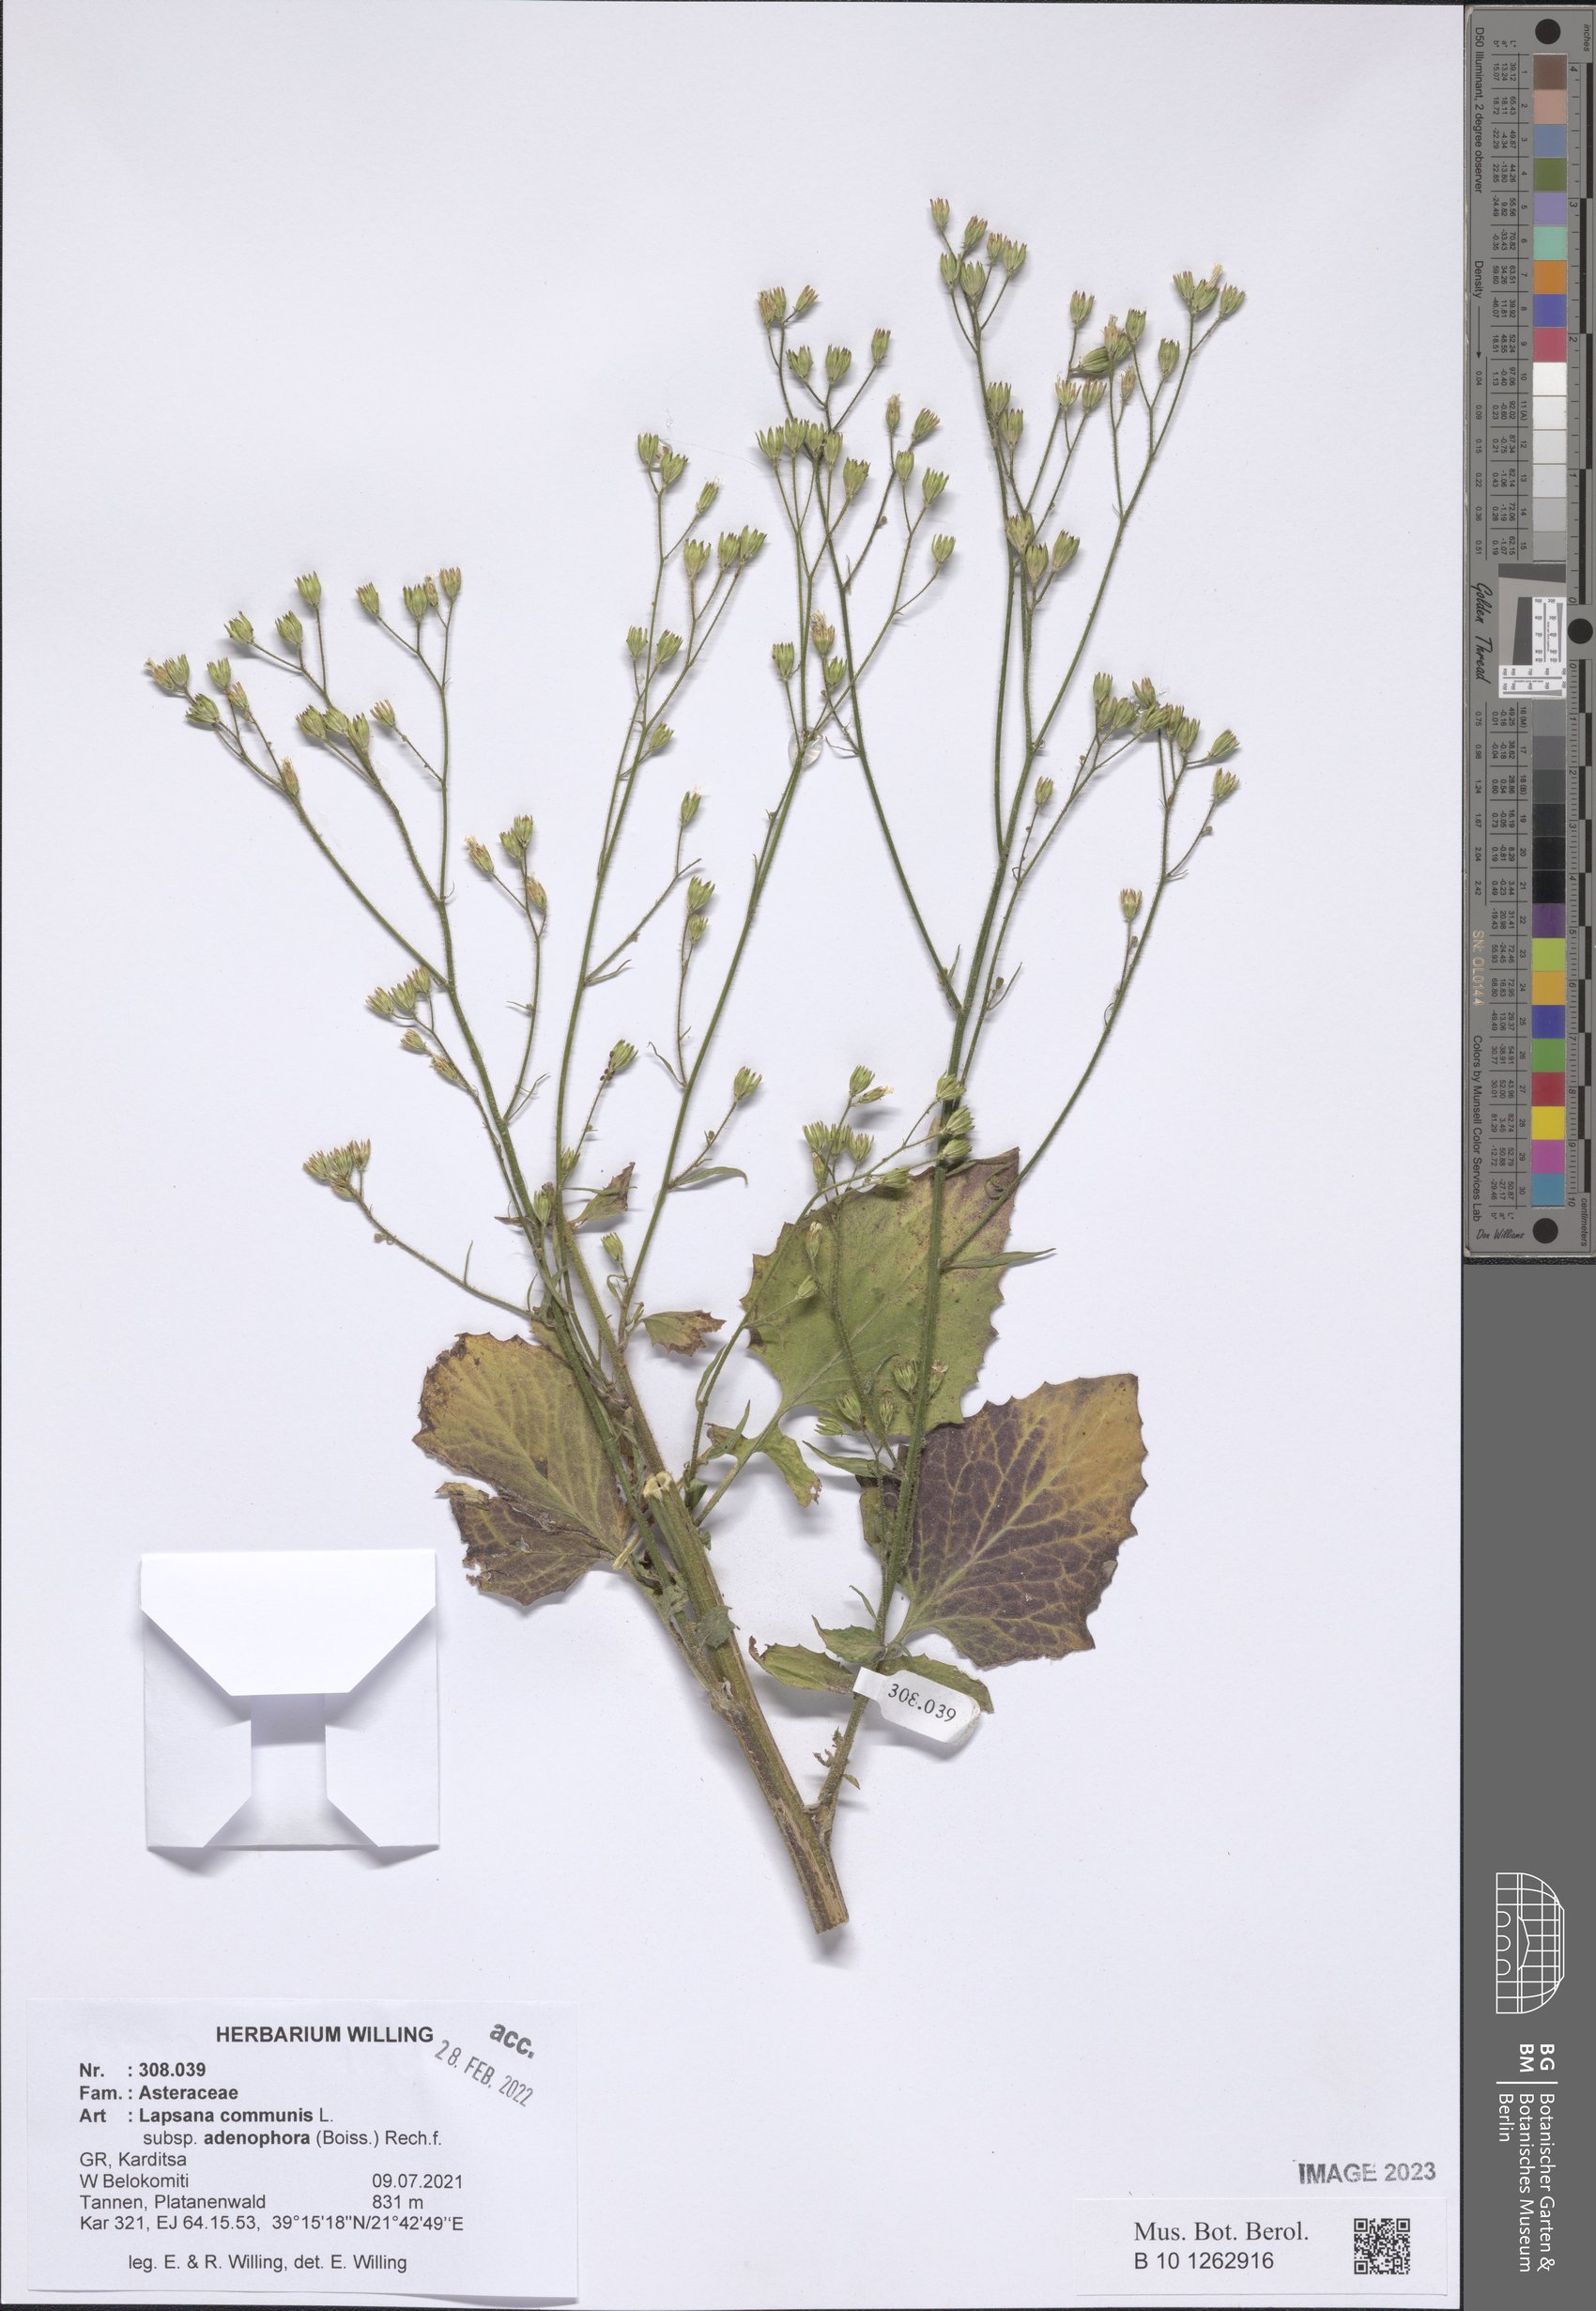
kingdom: Plantae
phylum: Tracheophyta
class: Magnoliopsida
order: Asterales
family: Asteraceae
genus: Lapsana
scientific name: Lapsana communis
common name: Nipplewort
